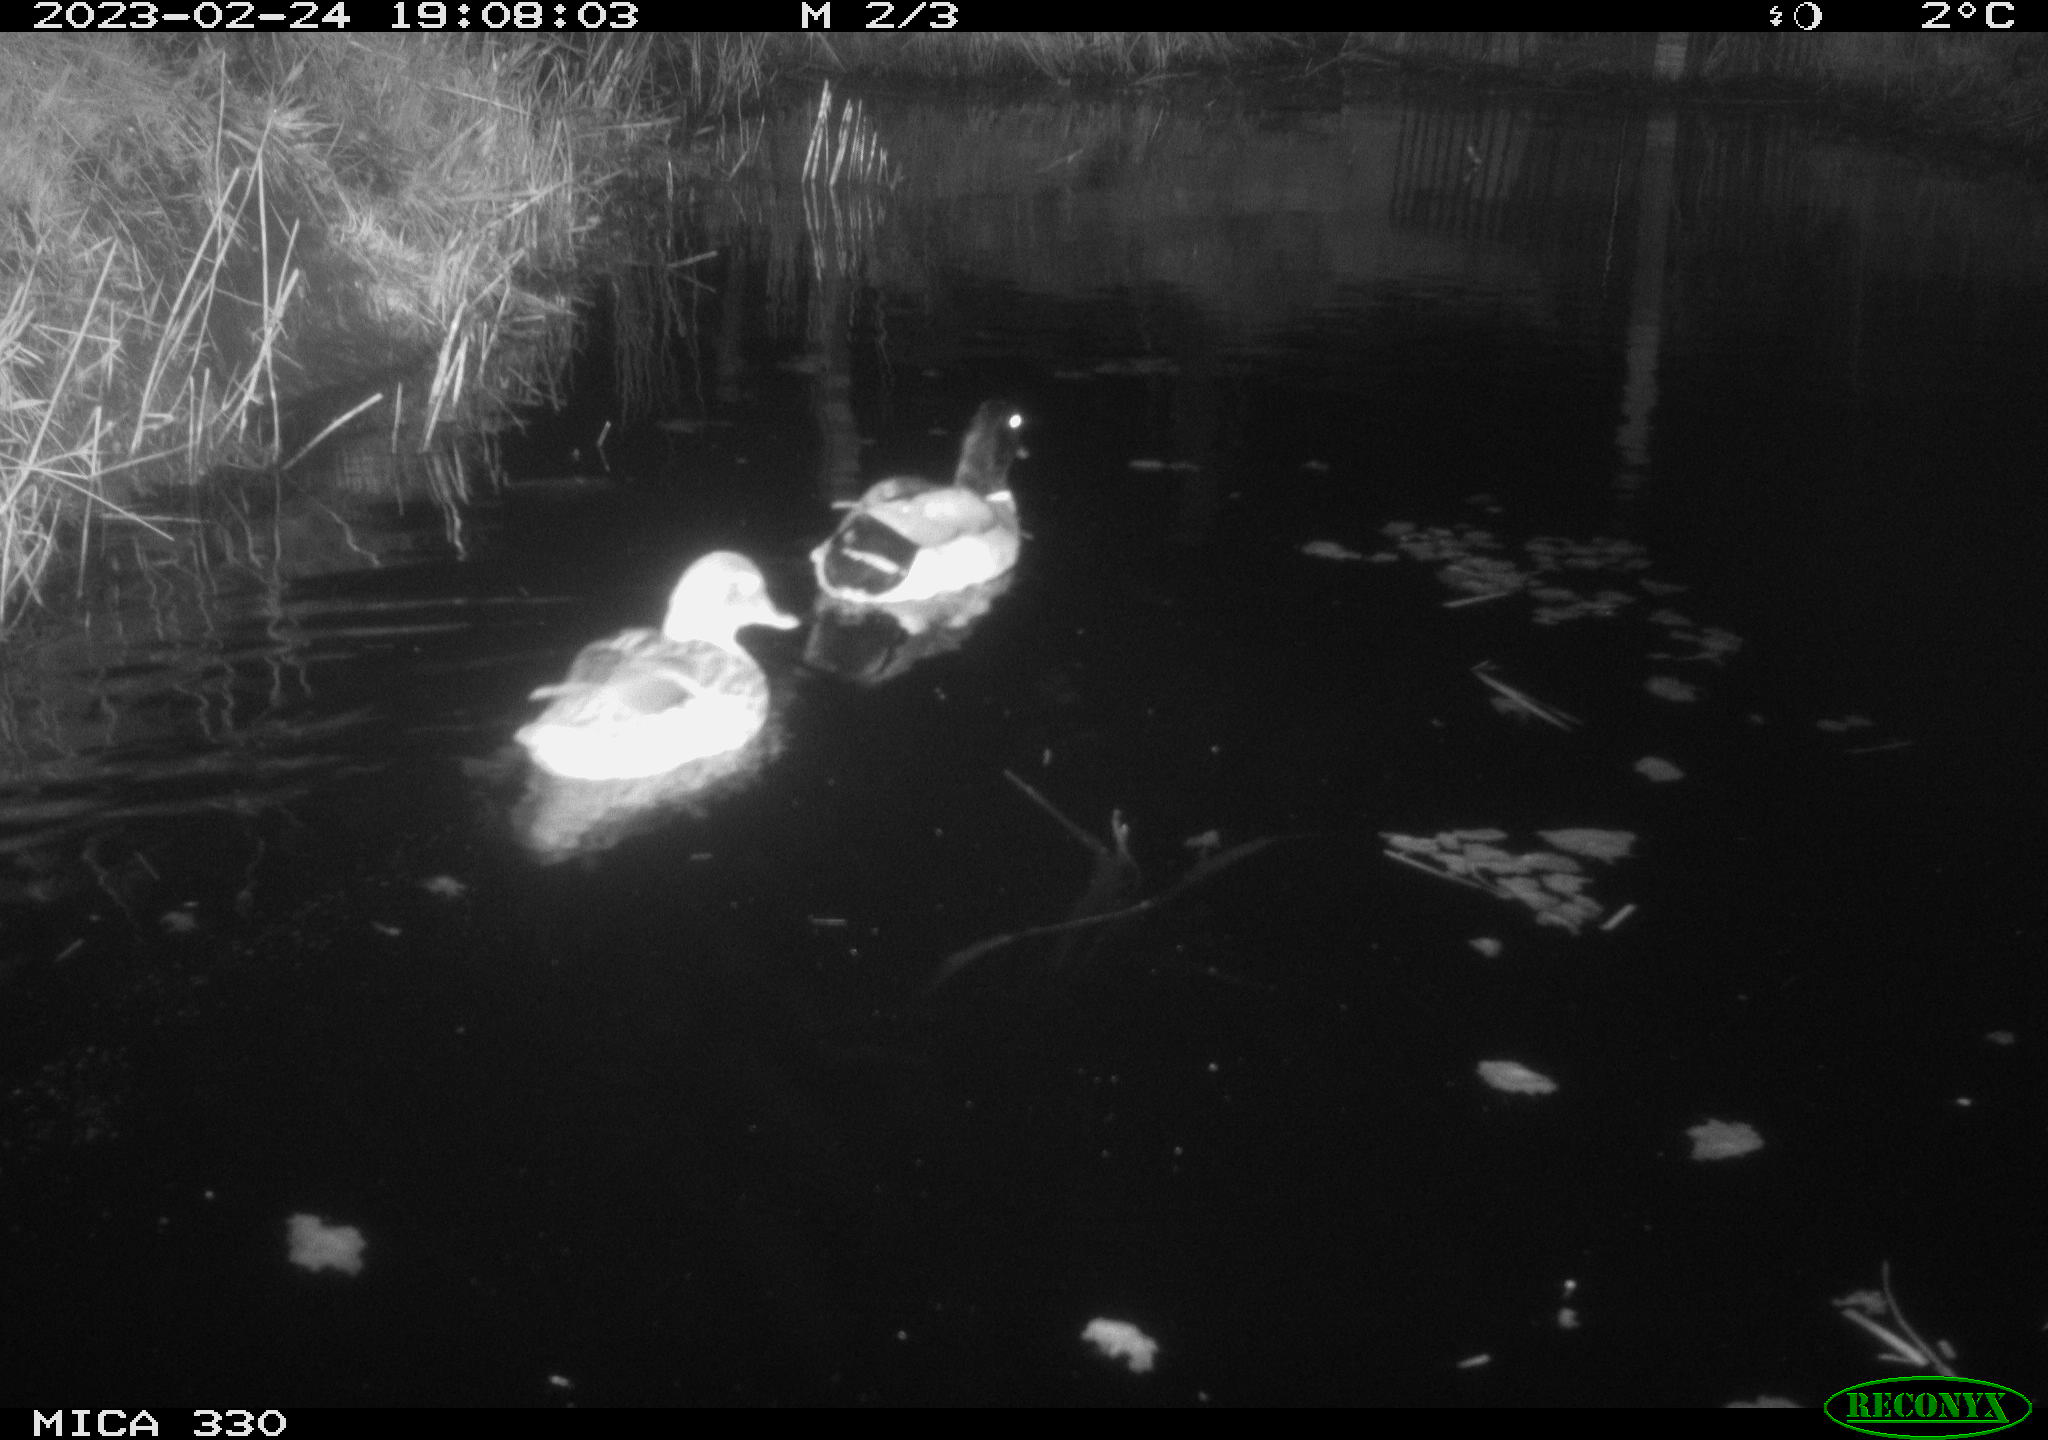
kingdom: Animalia
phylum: Chordata
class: Aves
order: Anseriformes
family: Anatidae
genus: Anas
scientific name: Anas
